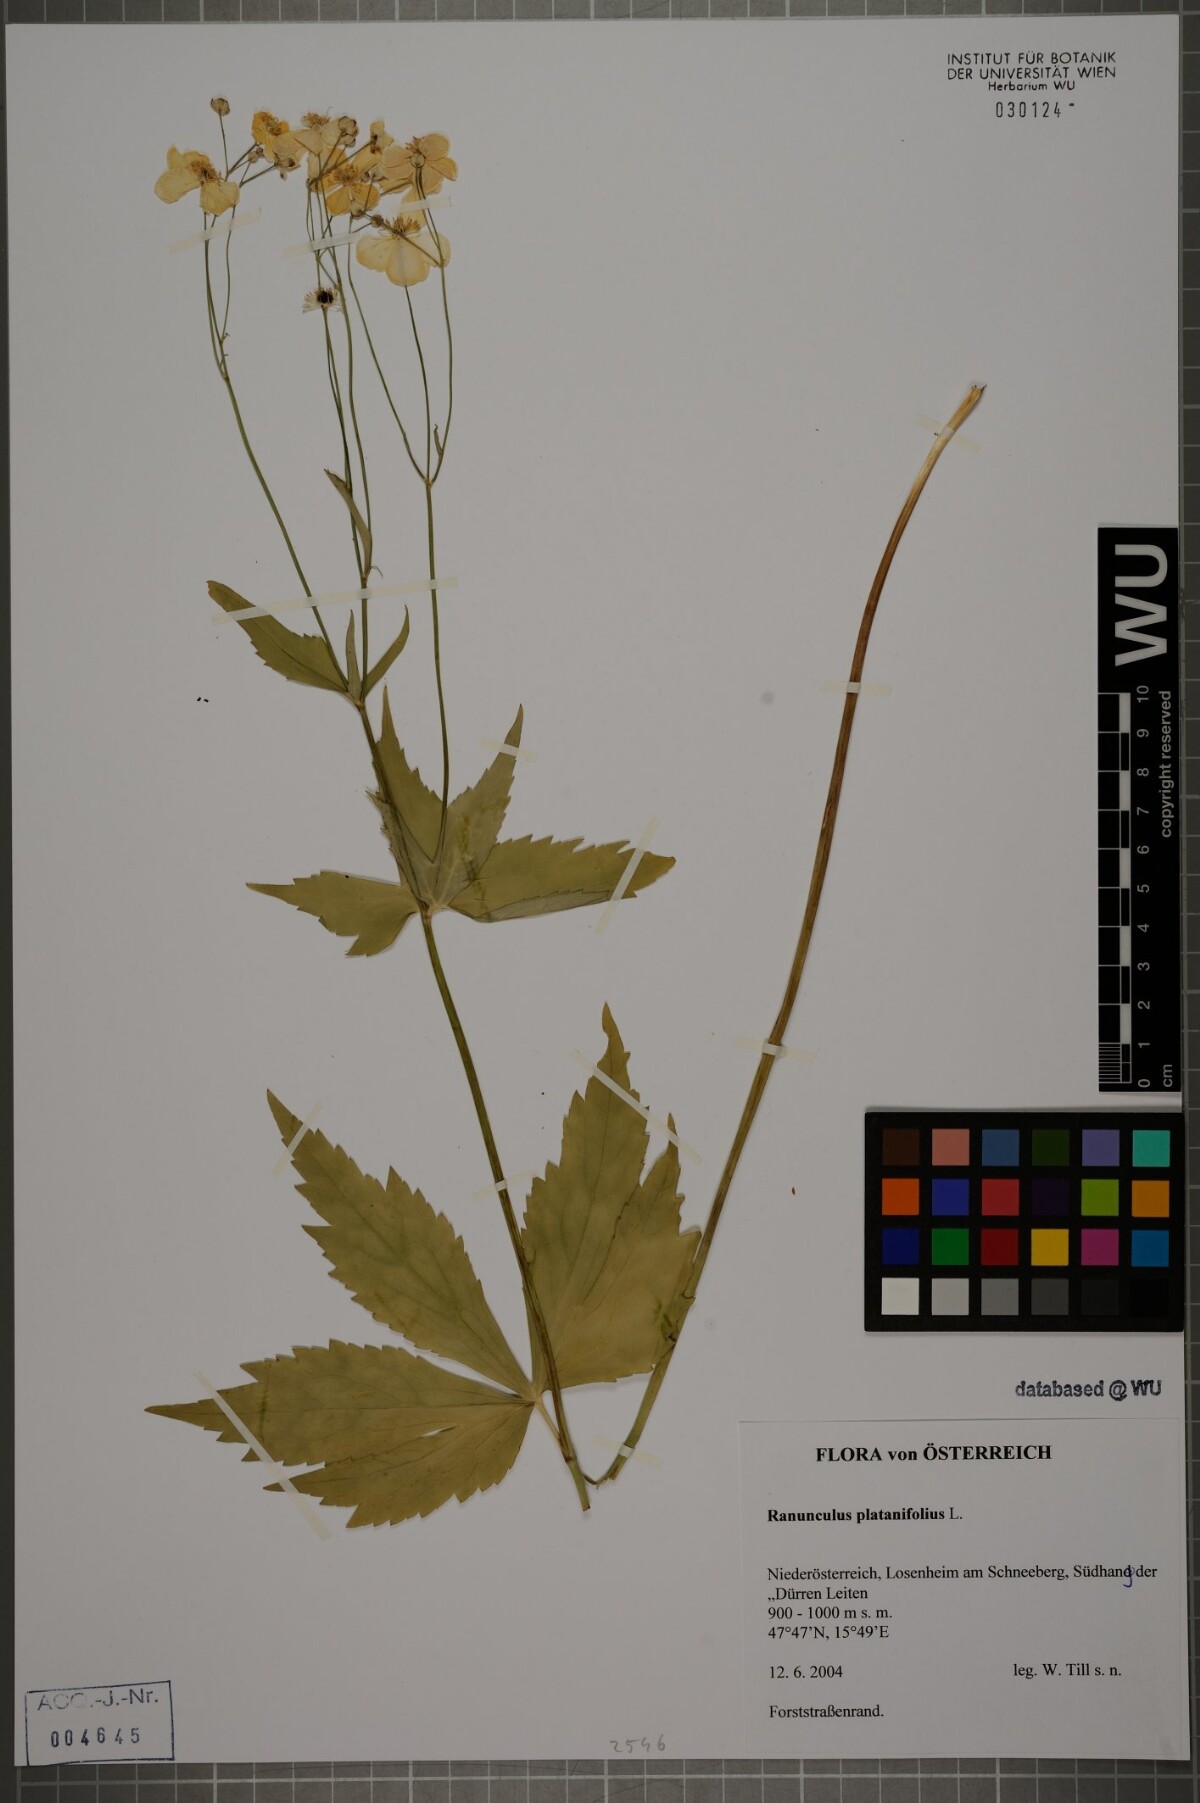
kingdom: Plantae
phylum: Tracheophyta
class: Magnoliopsida
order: Ranunculales
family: Ranunculaceae
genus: Ranunculus
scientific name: Ranunculus platanifolius
